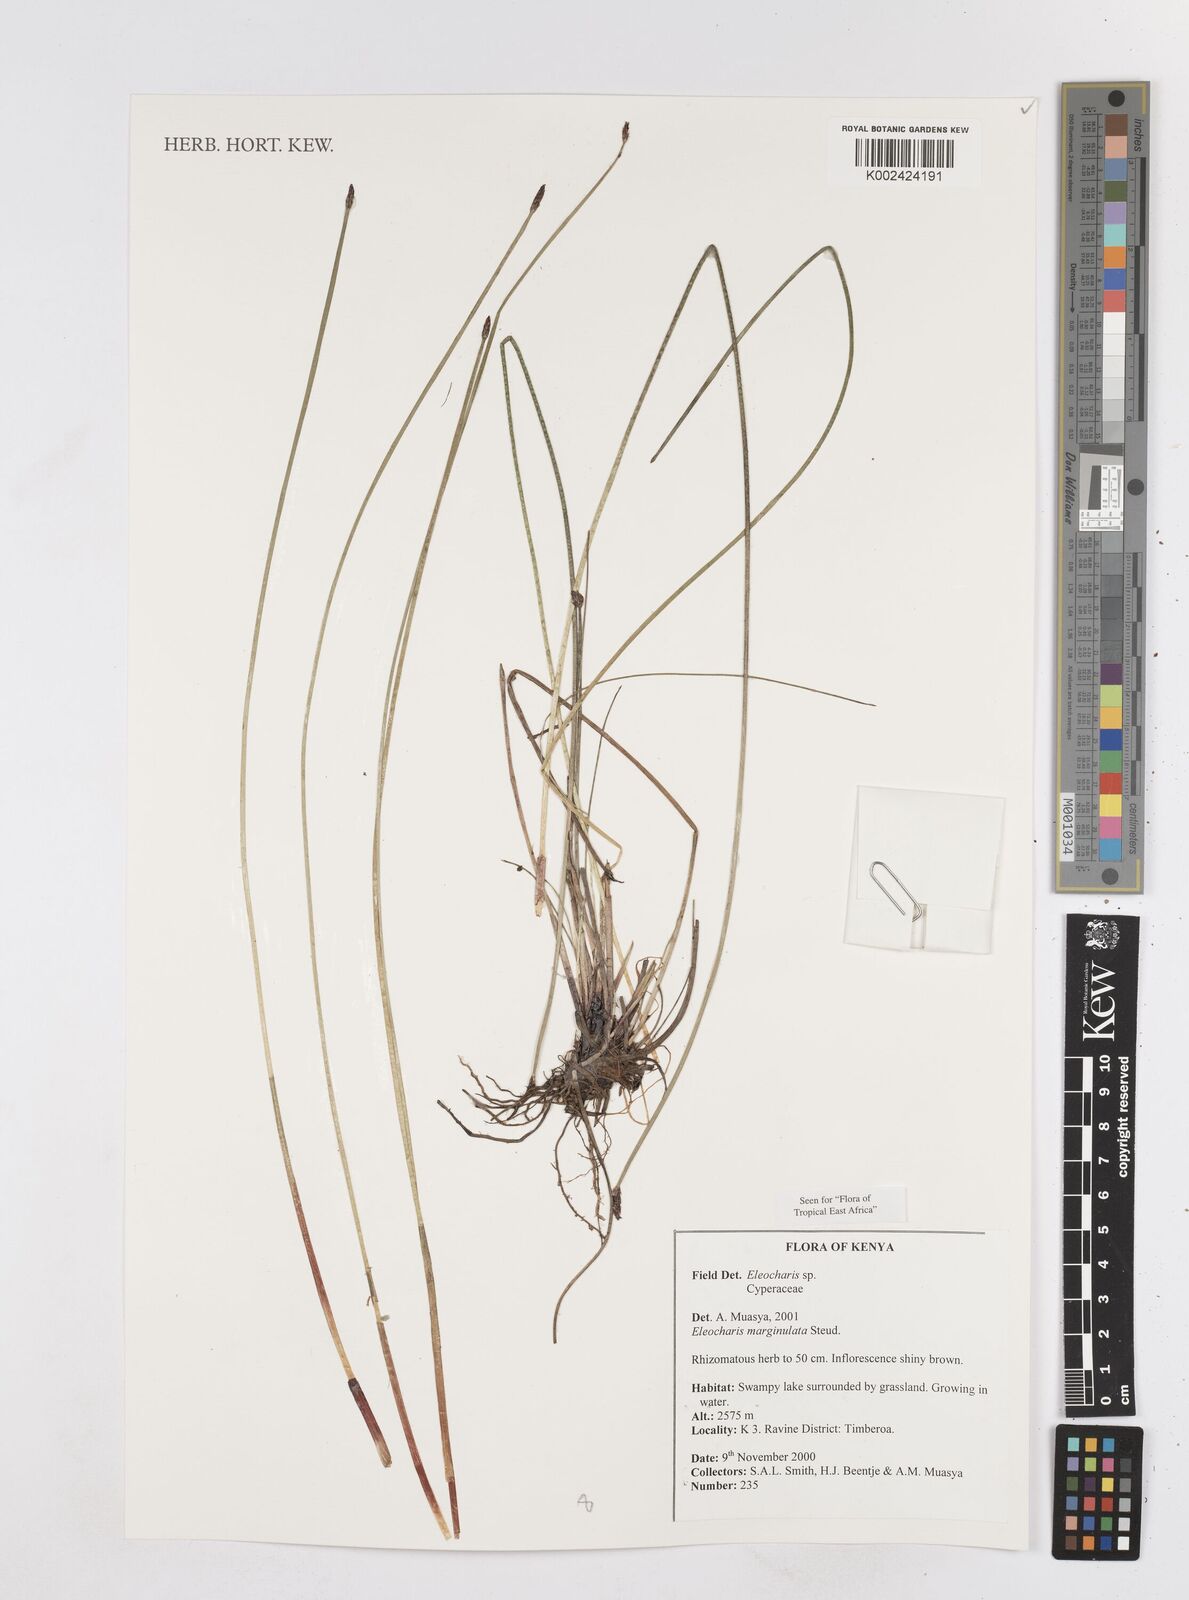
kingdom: Plantae
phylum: Tracheophyta
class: Liliopsida
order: Poales
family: Cyperaceae
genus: Eleocharis
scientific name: Eleocharis marginulata
